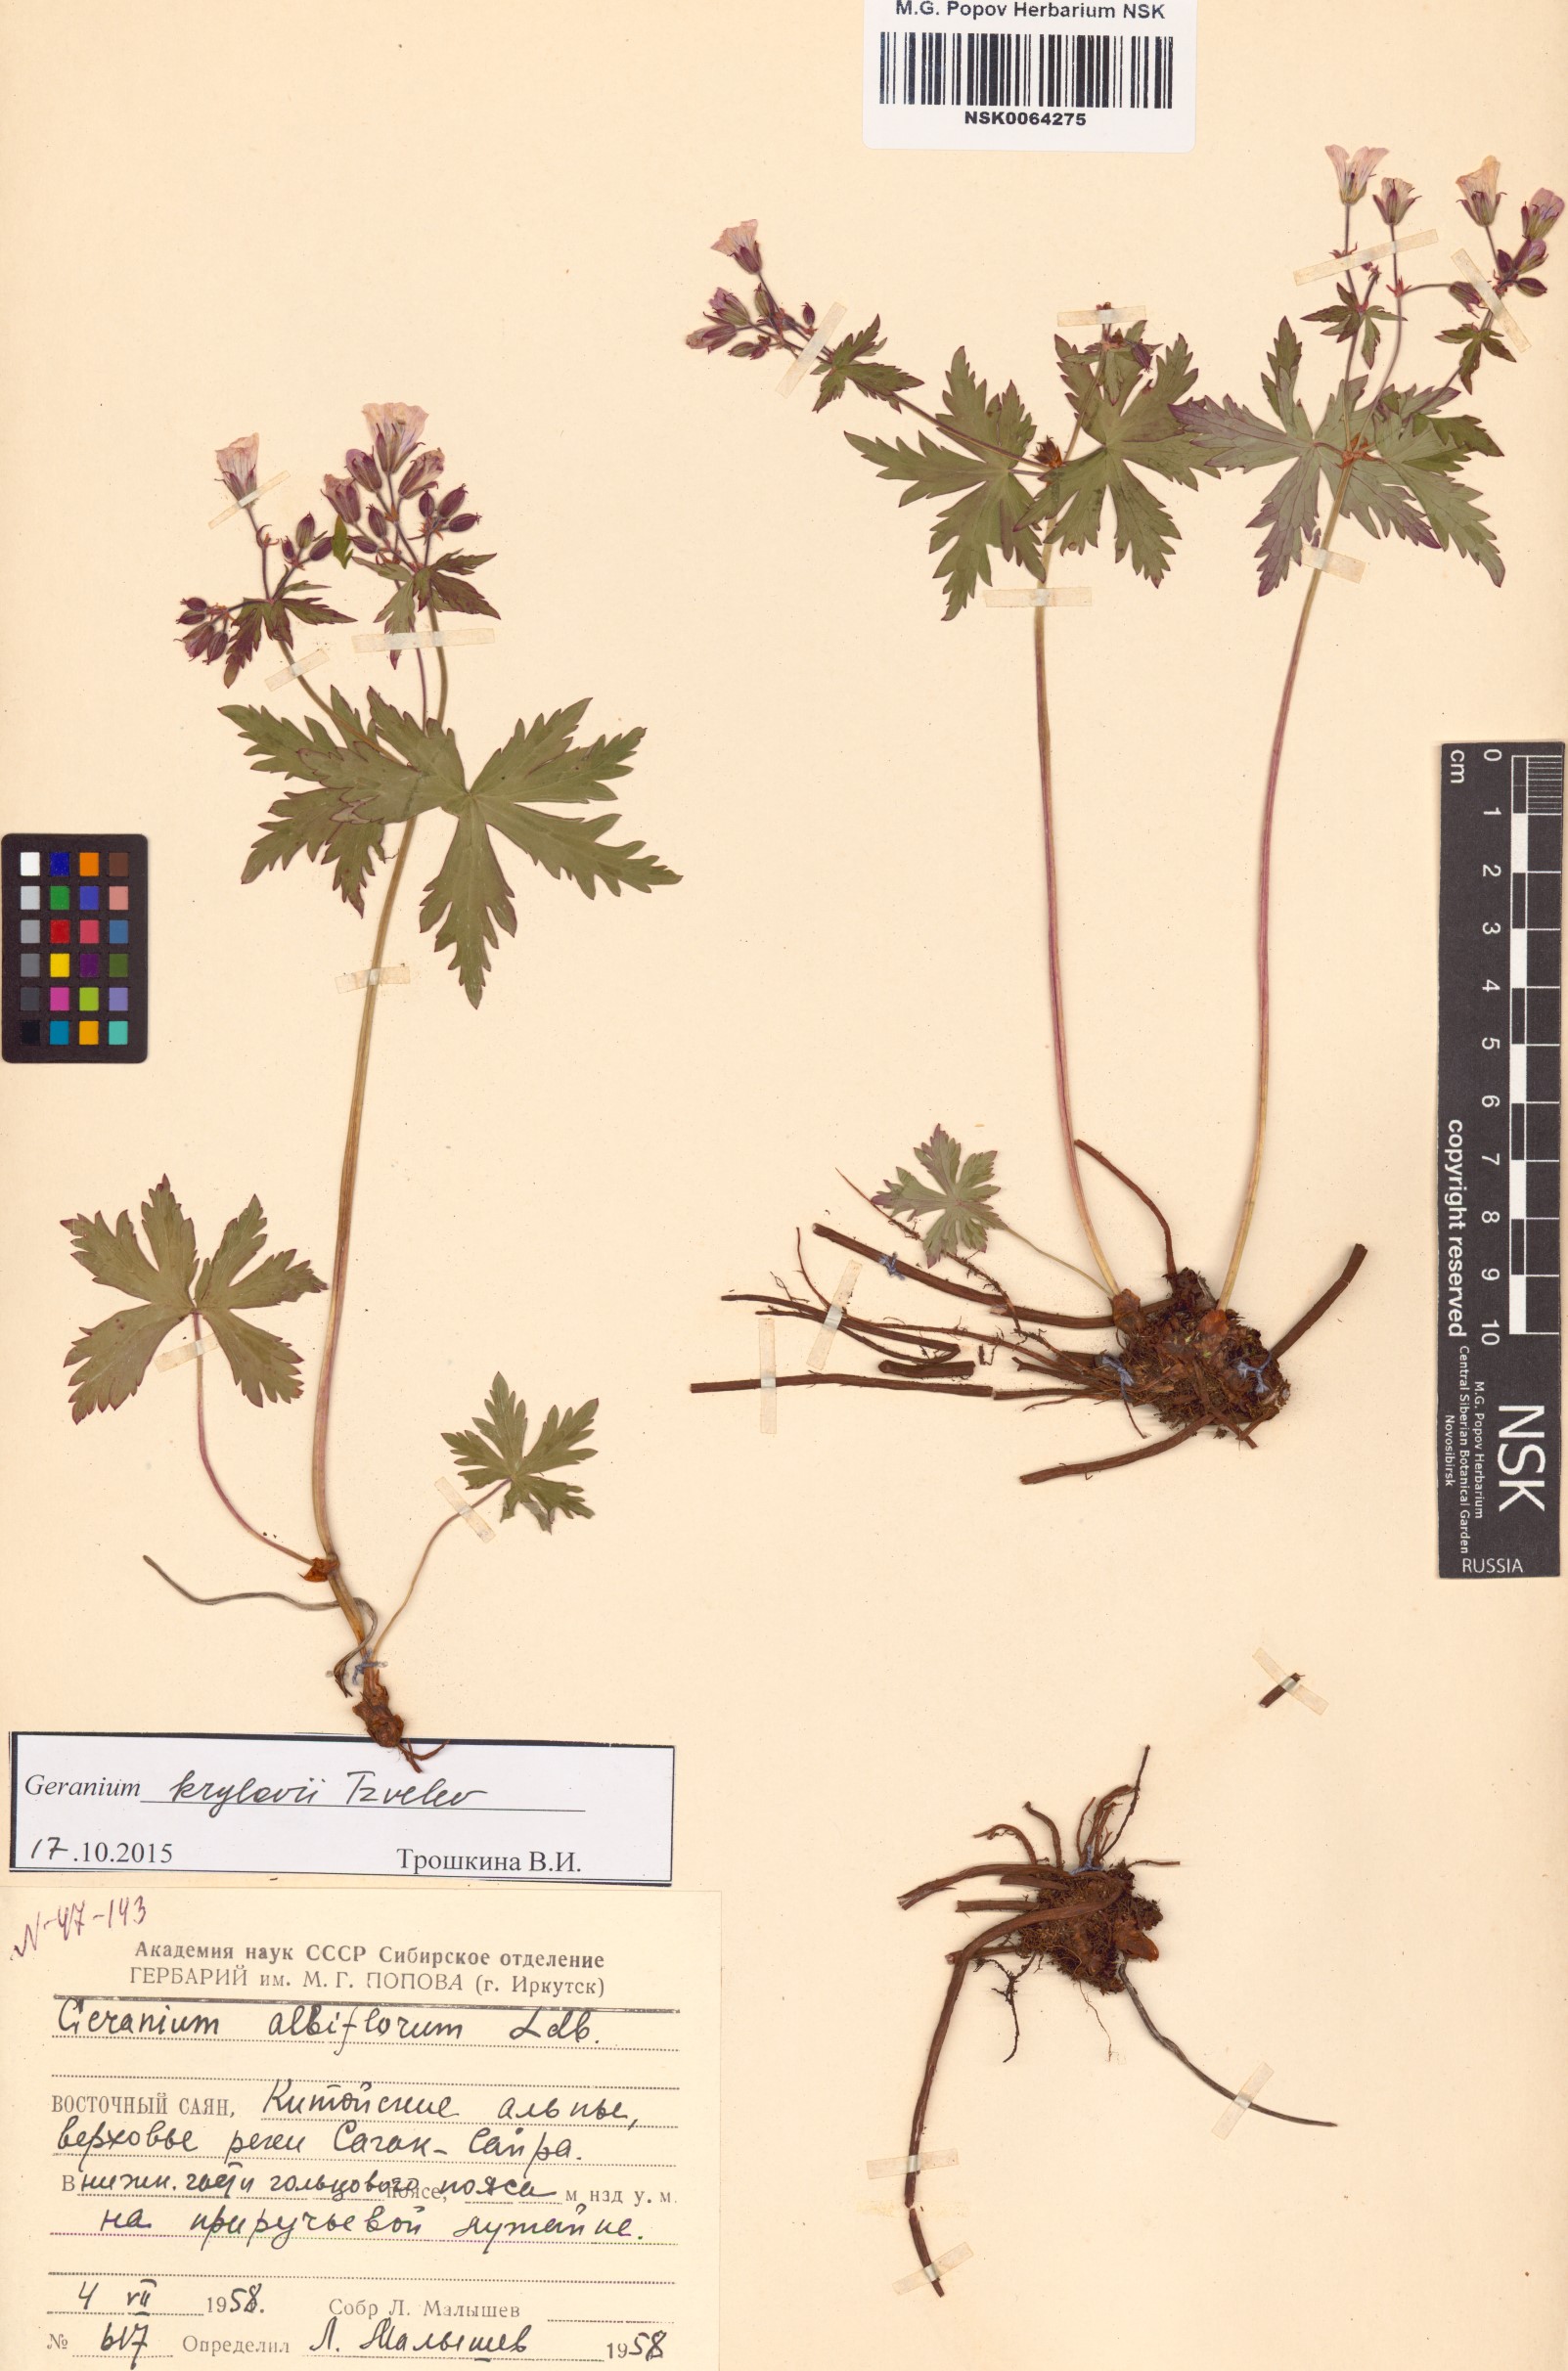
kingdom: Plantae
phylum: Tracheophyta
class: Magnoliopsida
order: Geraniales
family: Geraniaceae
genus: Geranium
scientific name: Geranium sylvaticum
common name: Wood crane's-bill
